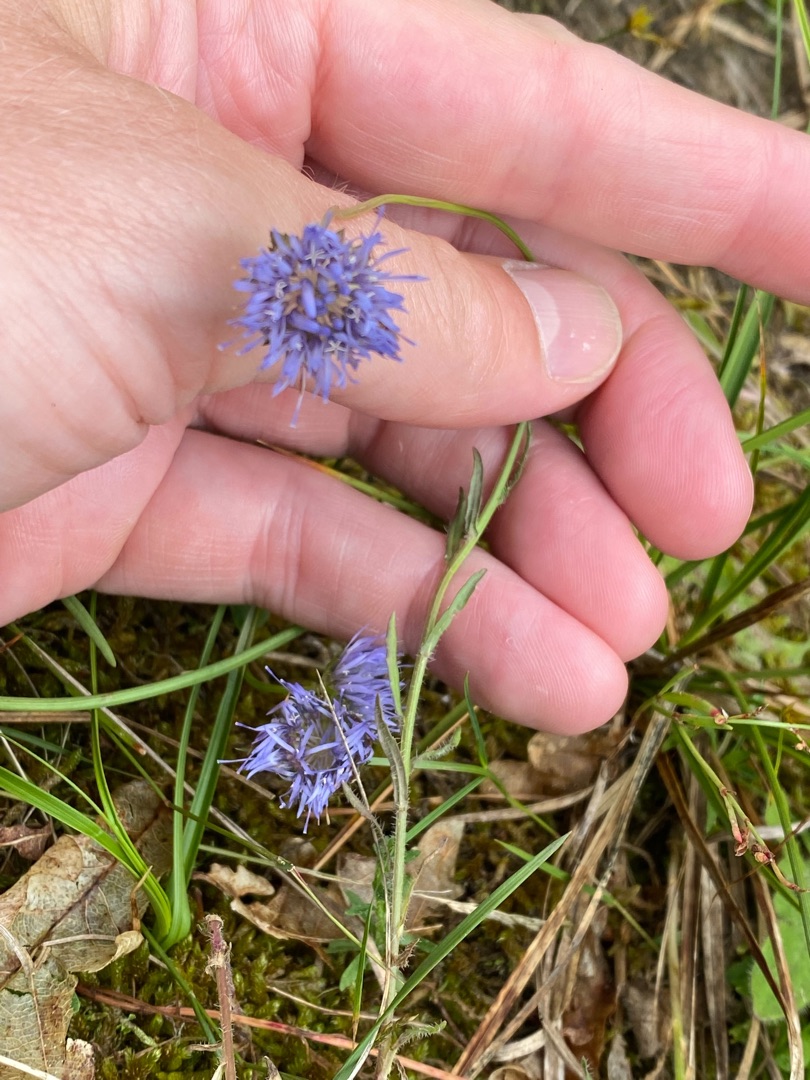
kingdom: Plantae
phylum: Tracheophyta
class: Magnoliopsida
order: Asterales
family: Campanulaceae
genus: Jasione
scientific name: Jasione montana
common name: Blåmunke
